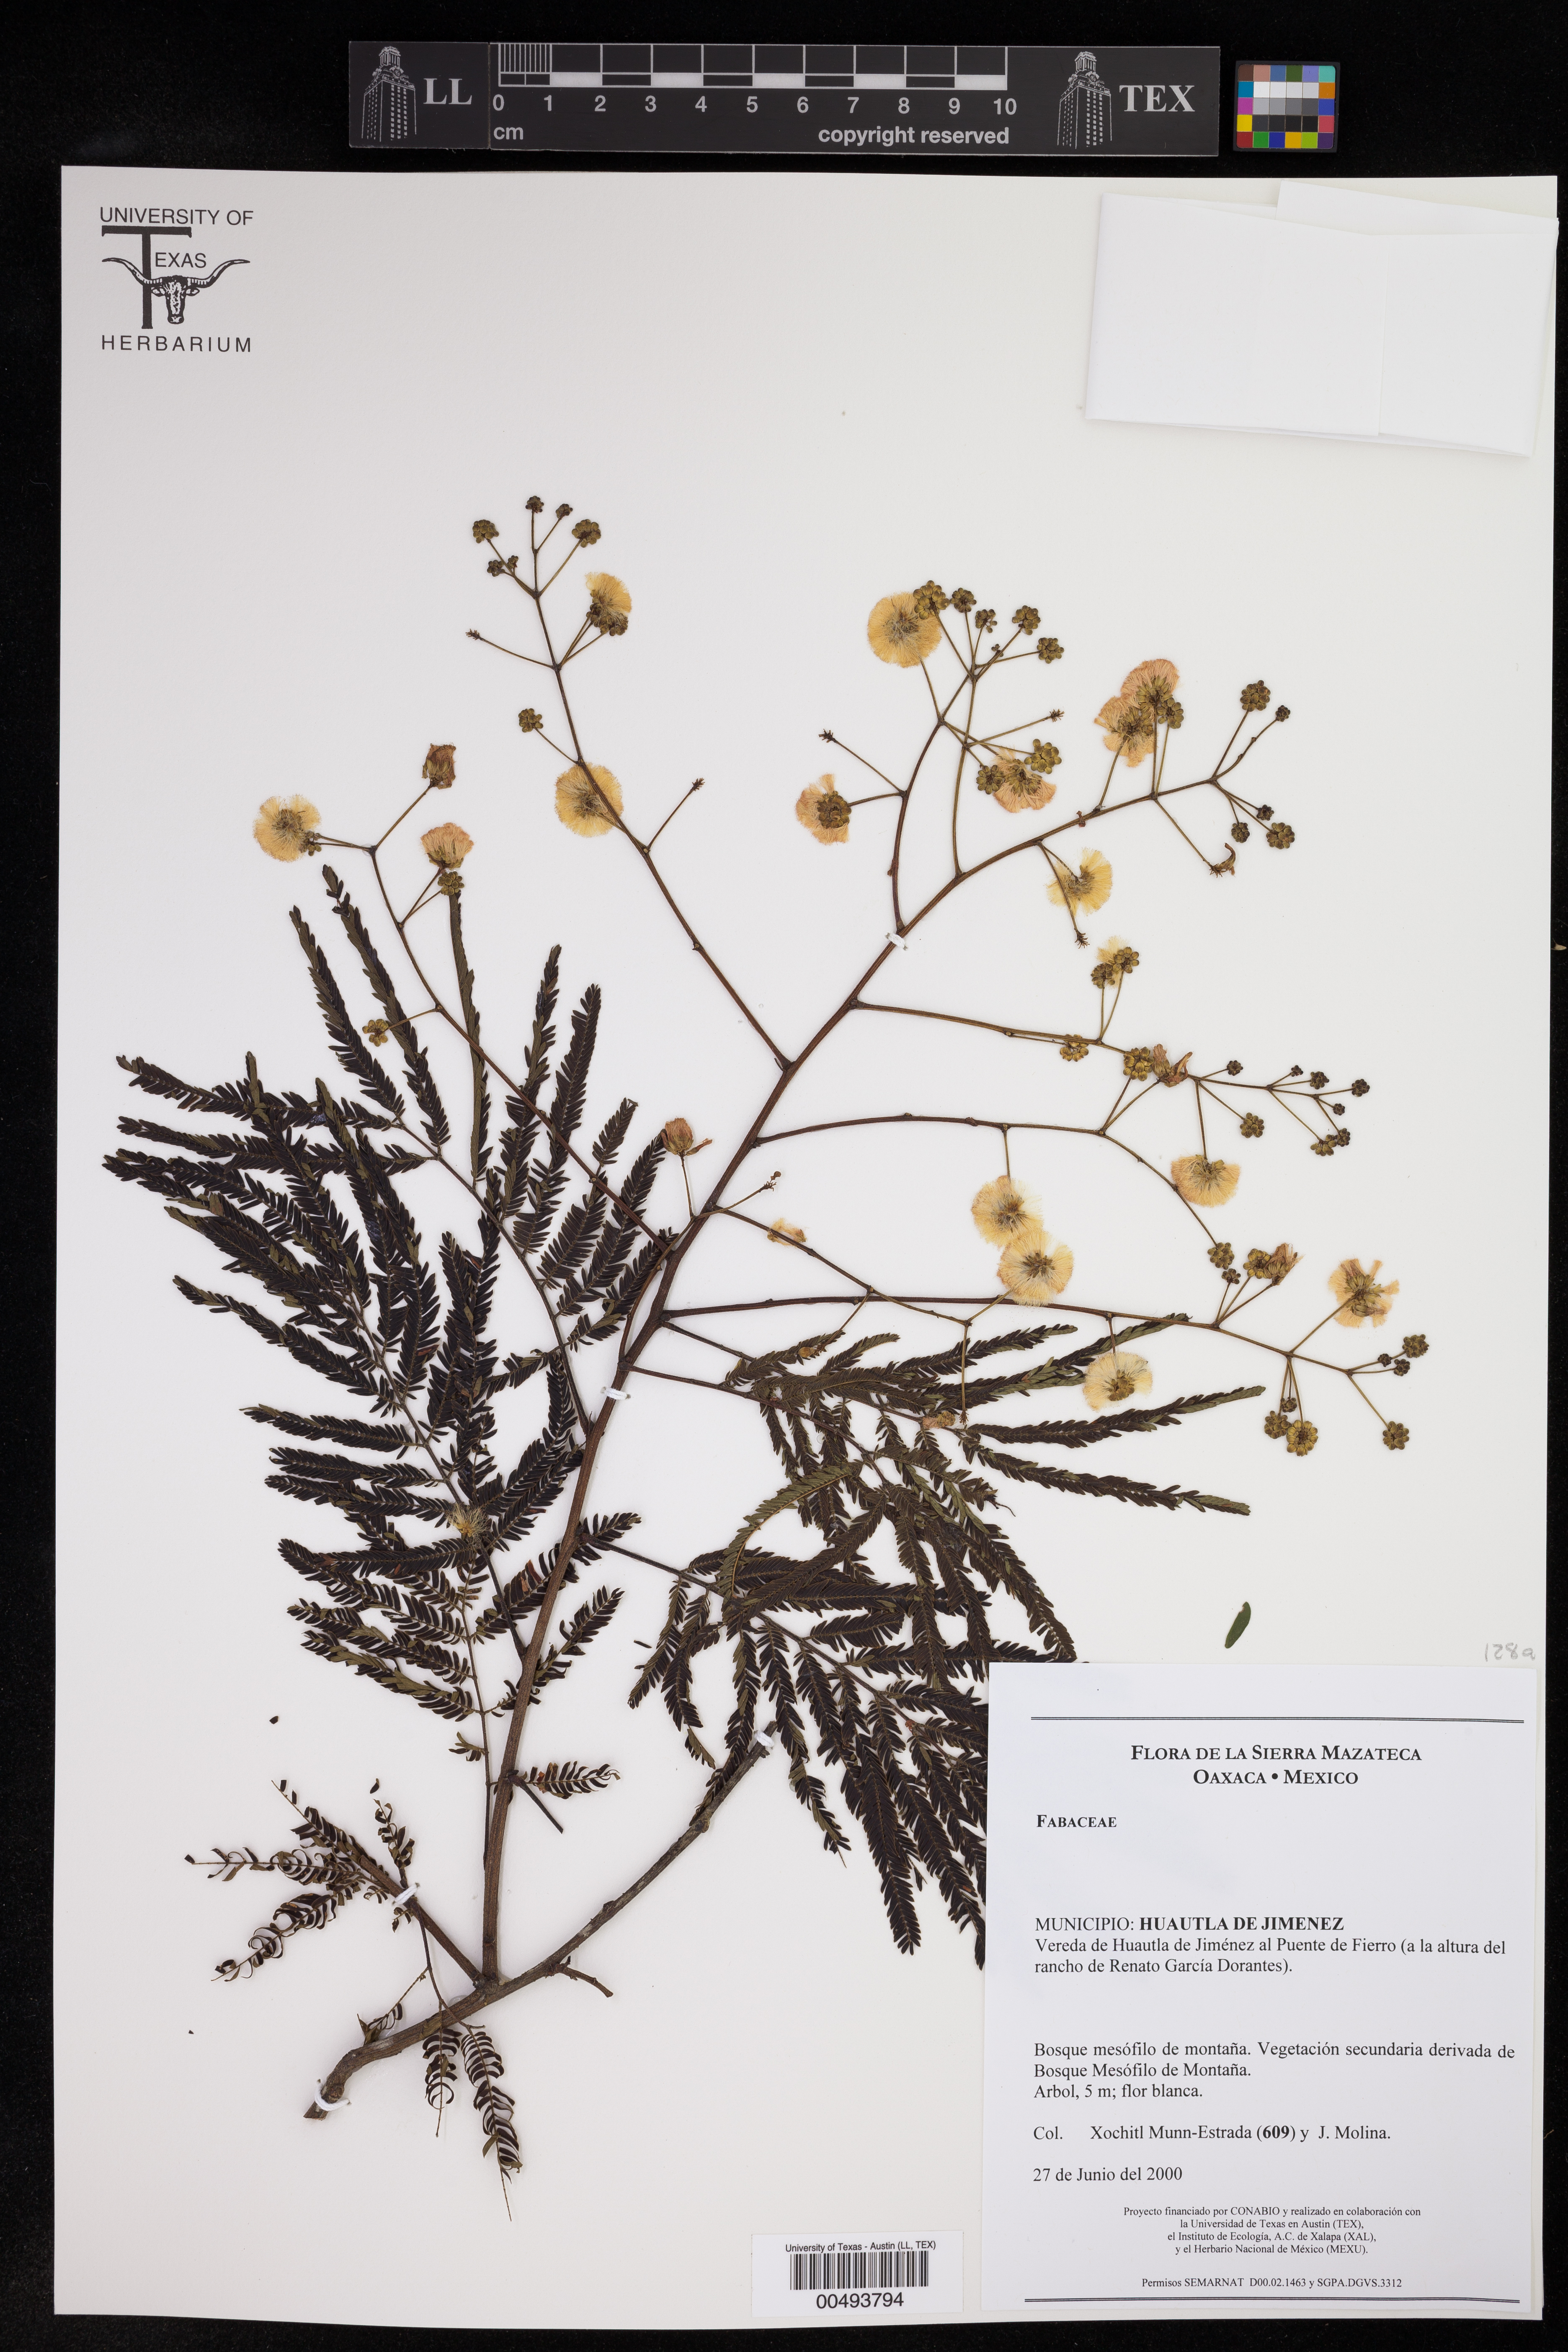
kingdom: Plantae
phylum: Tracheophyta
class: Magnoliopsida
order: Fabales
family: Fabaceae
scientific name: Fabaceae
